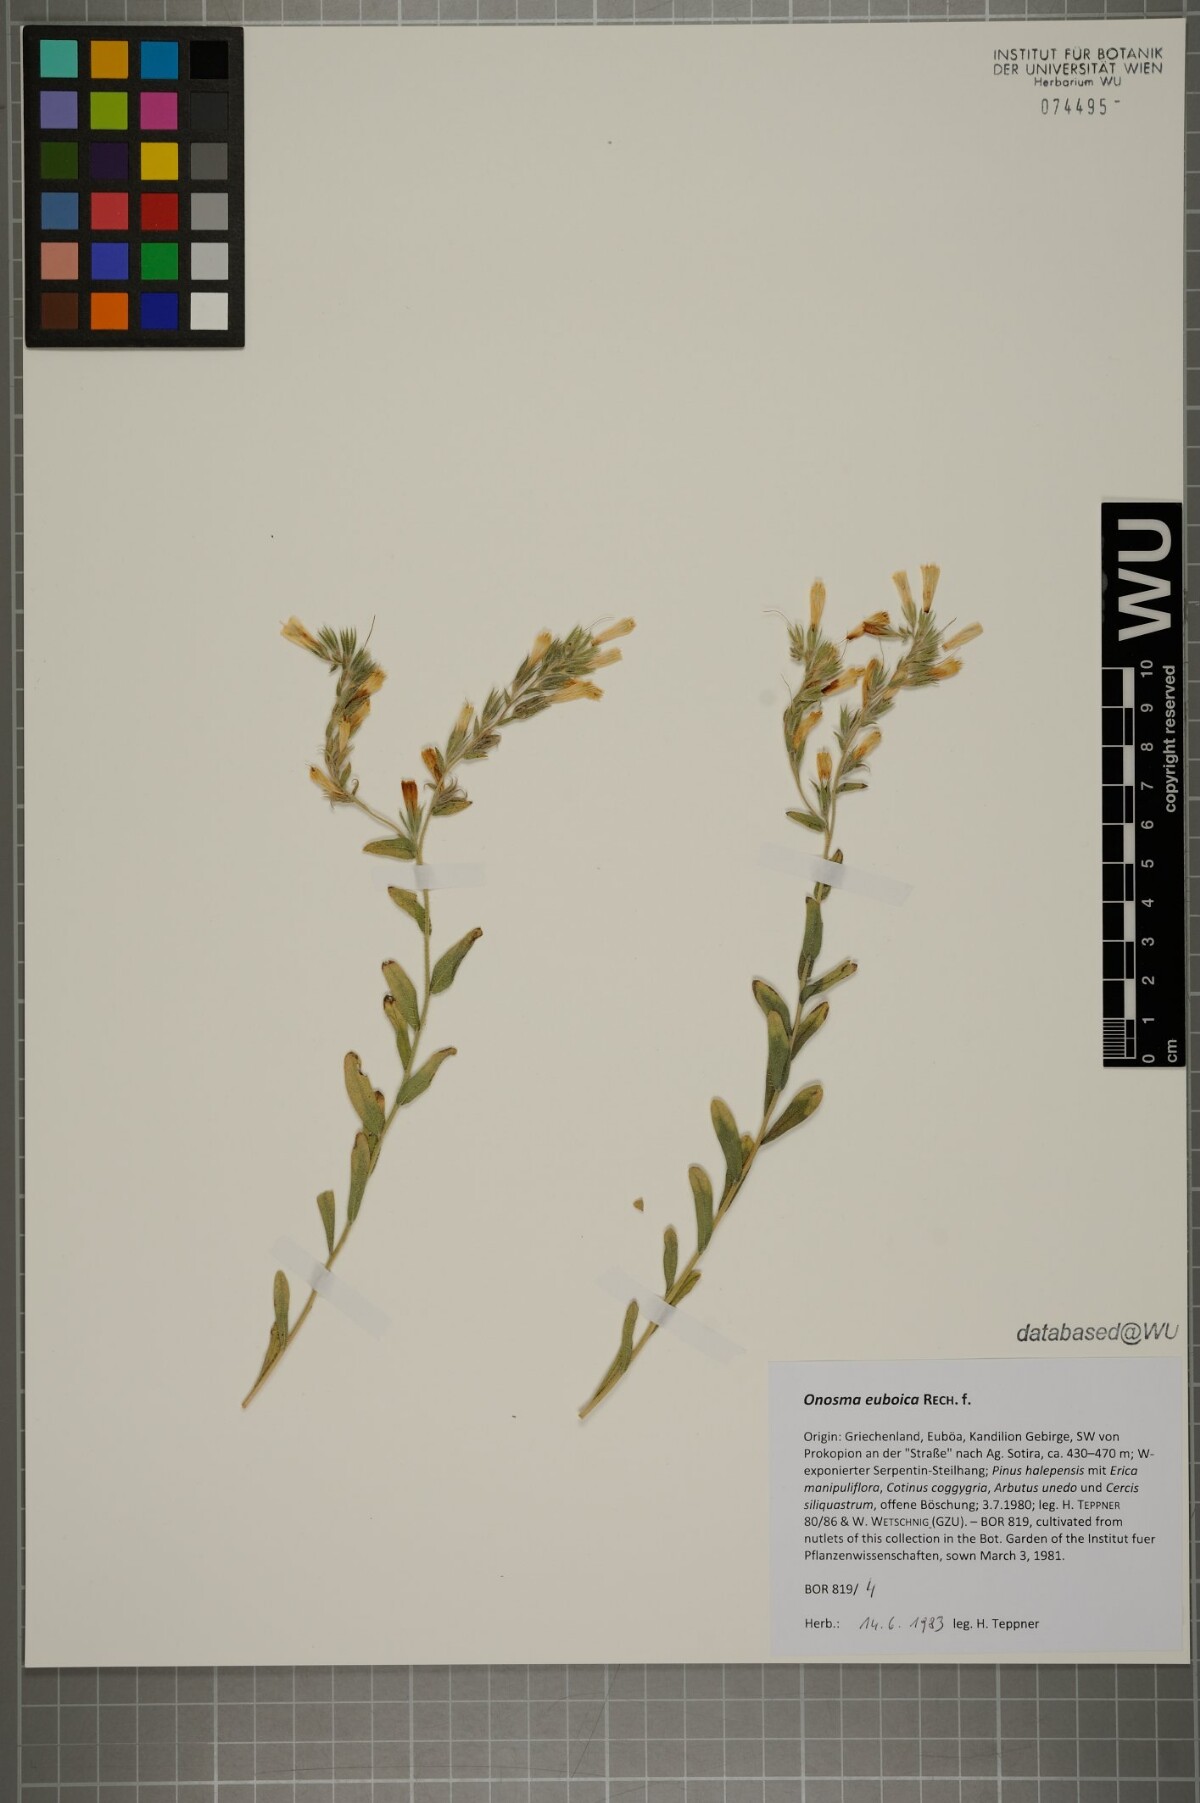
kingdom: Plantae
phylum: Tracheophyta
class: Magnoliopsida
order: Boraginales
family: Boraginaceae
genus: Onosma
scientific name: Onosma euboica
